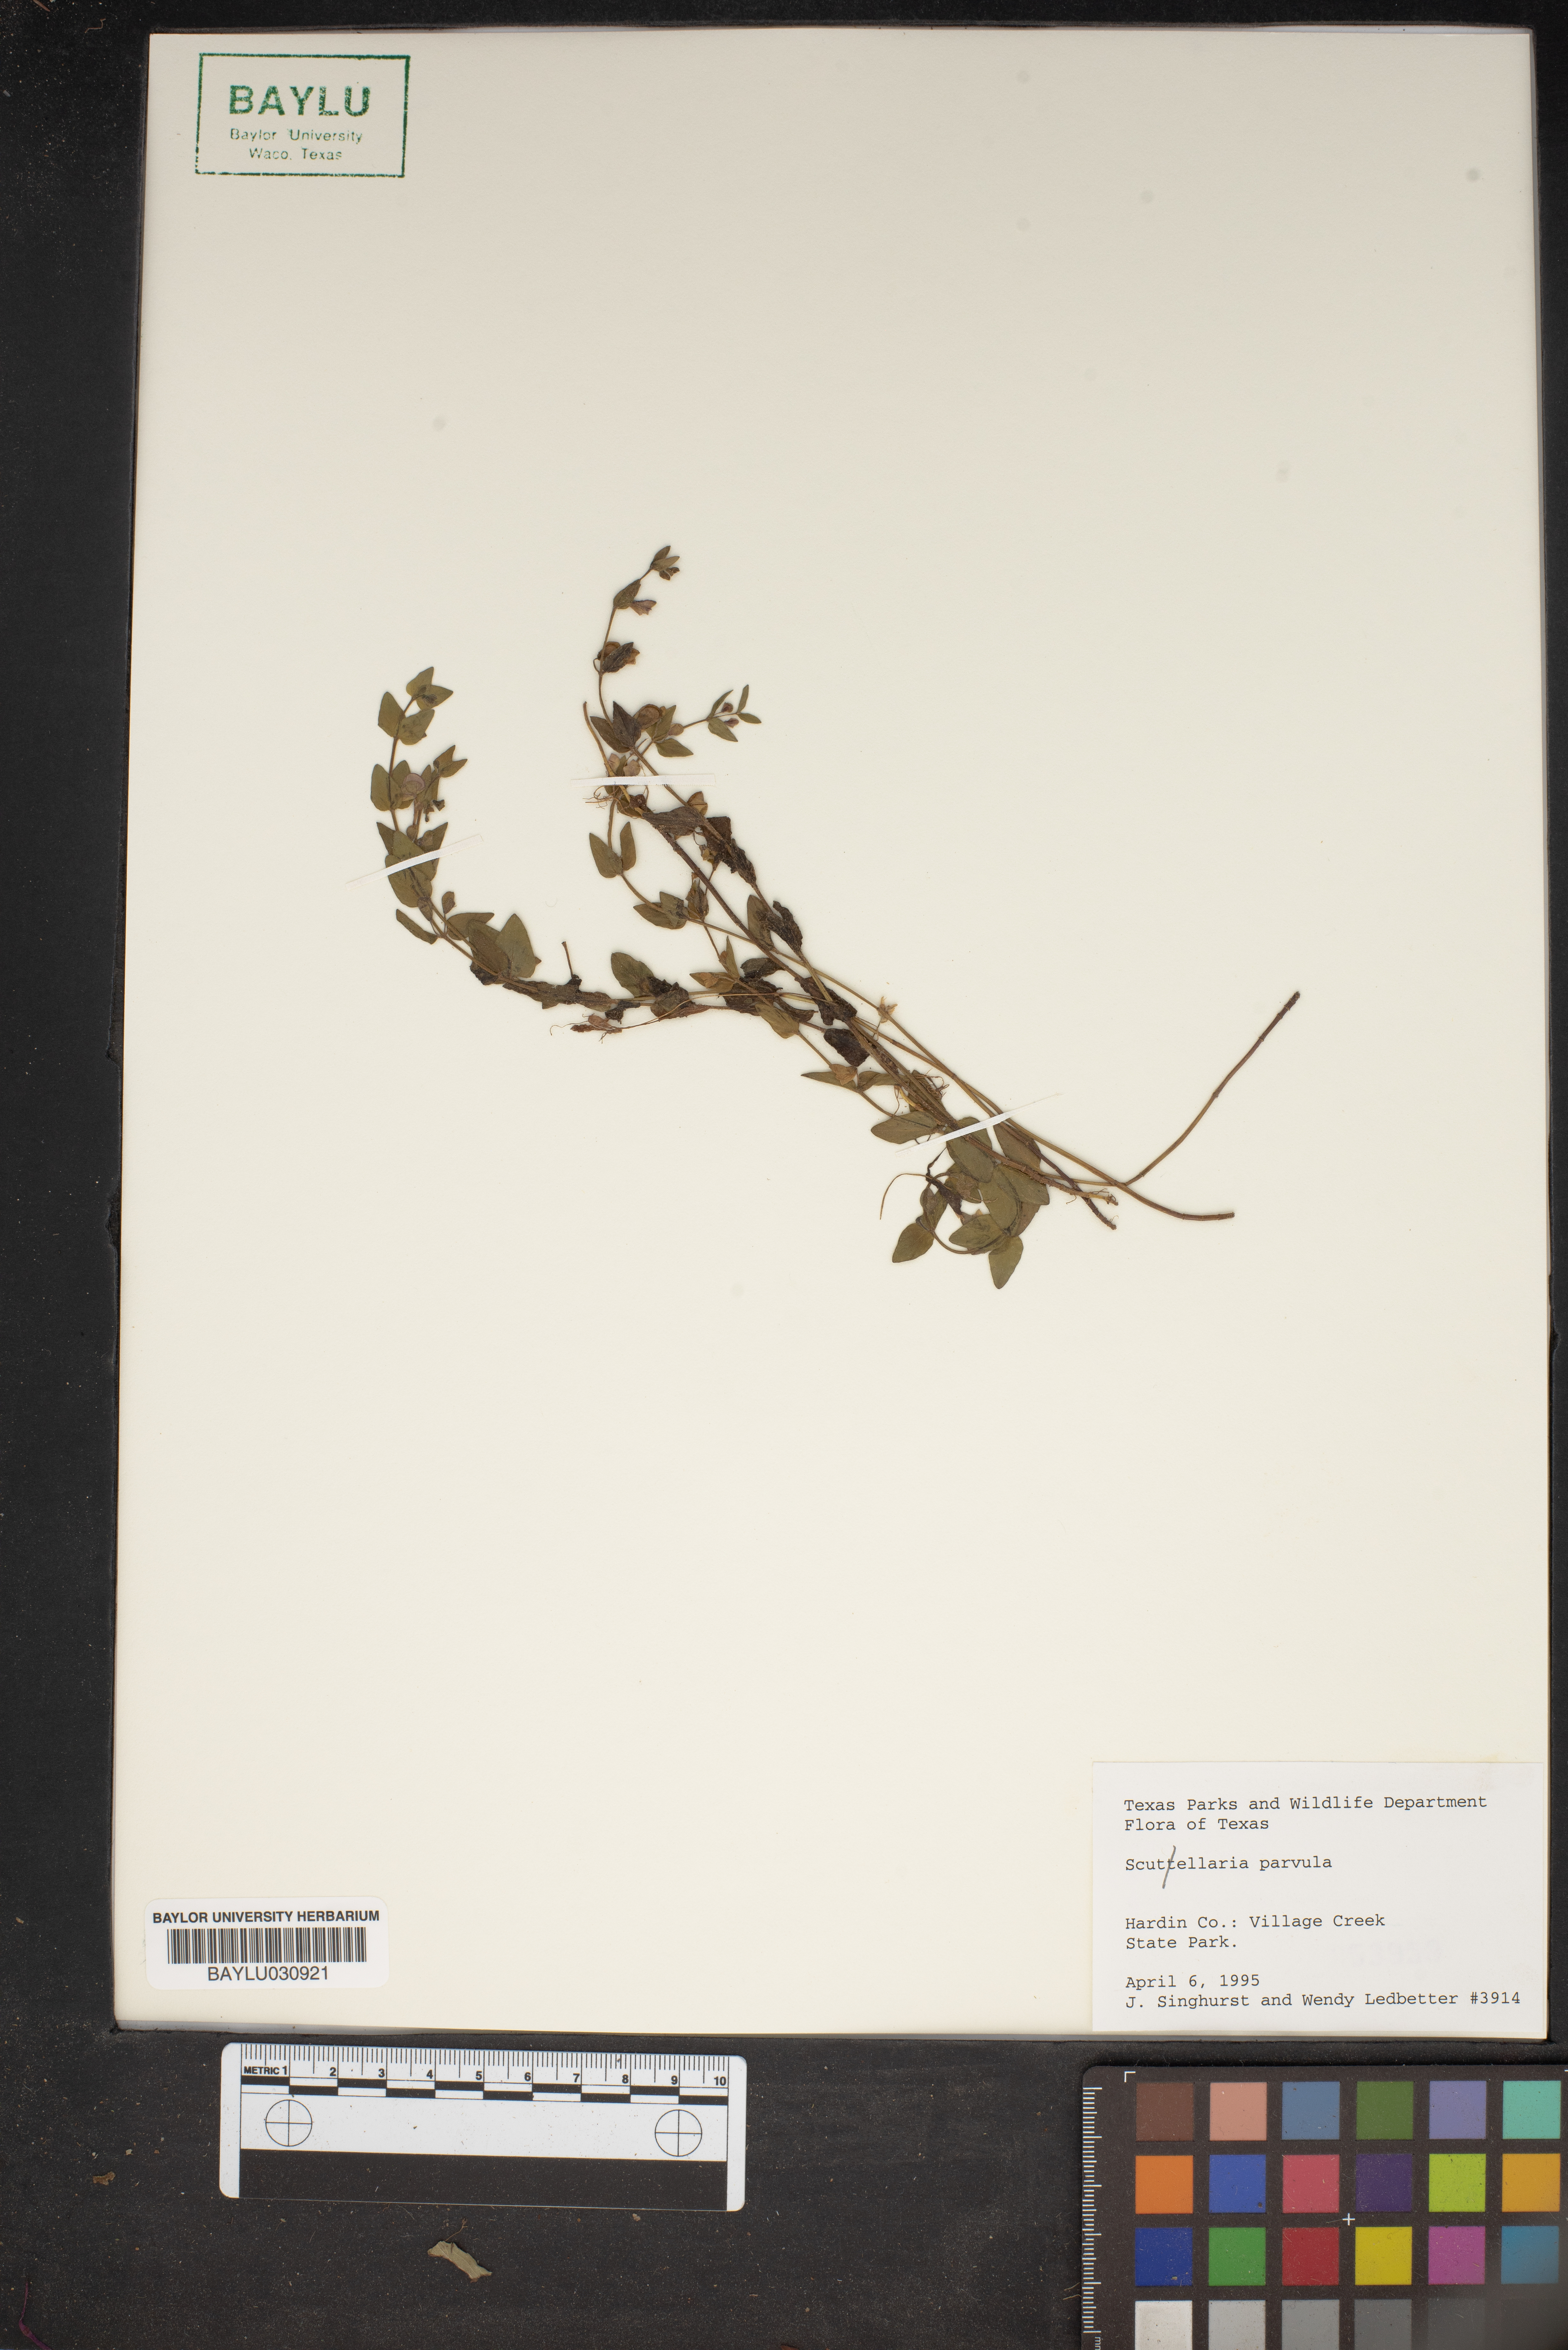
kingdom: Plantae
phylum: Tracheophyta
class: Magnoliopsida
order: Lamiales
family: Lamiaceae
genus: Scutellaria
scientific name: Scutellaria parvula
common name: Little scullcap
